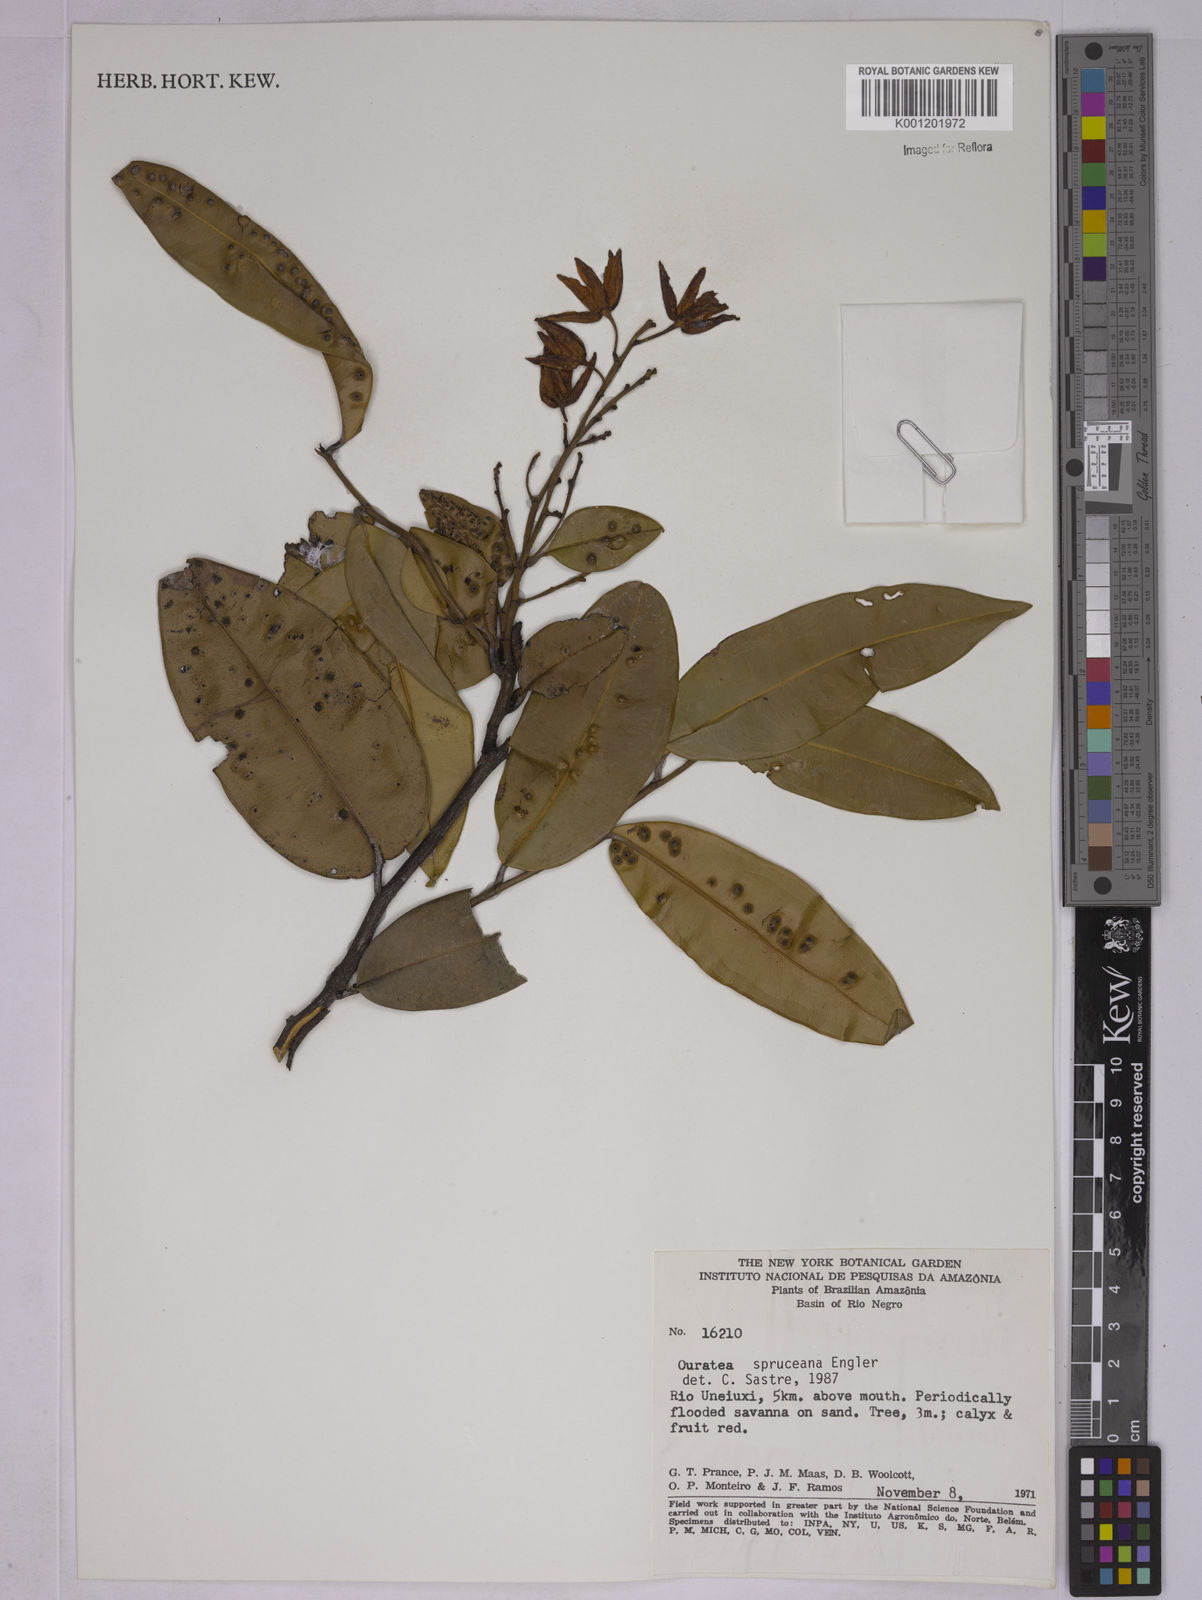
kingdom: Plantae
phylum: Tracheophyta
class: Magnoliopsida
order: Malpighiales
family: Ochnaceae
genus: Ouratea
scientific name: Ouratea spruceana
